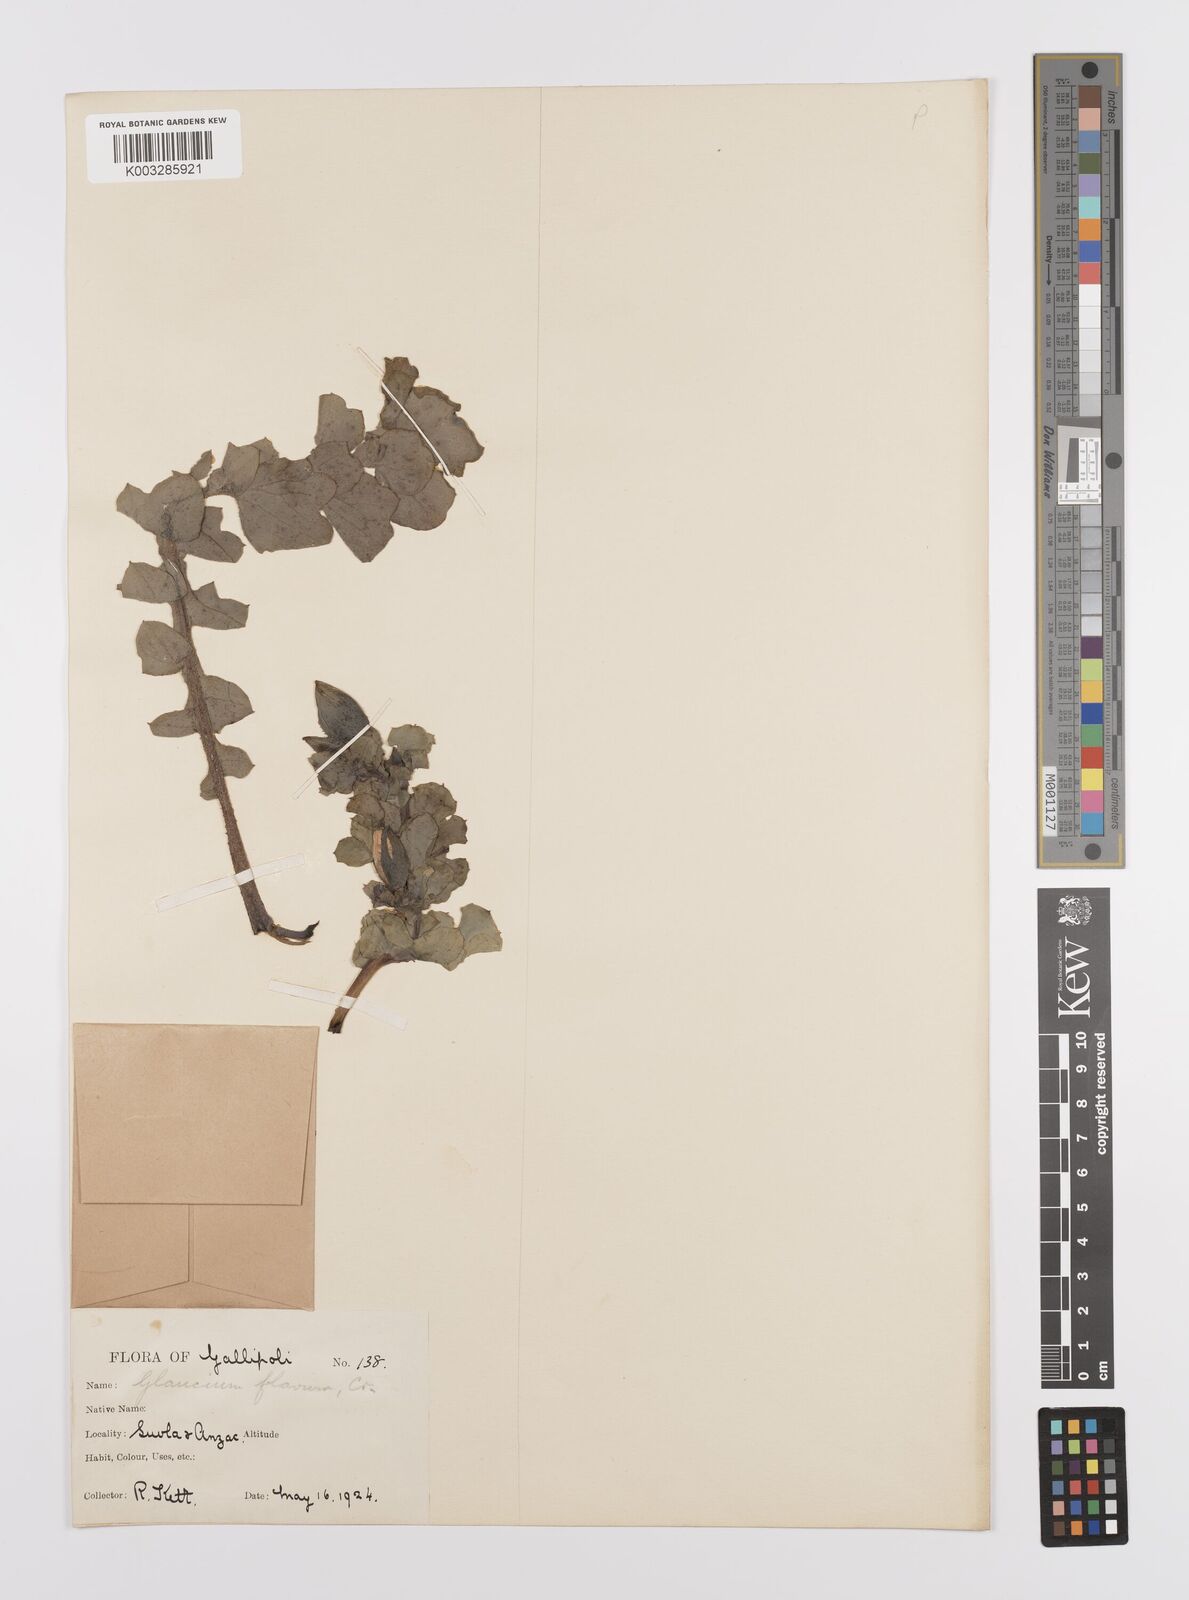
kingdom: Plantae
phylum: Tracheophyta
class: Magnoliopsida
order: Ranunculales
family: Papaveraceae
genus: Glaucium
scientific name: Glaucium flavum
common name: Yellow horned-poppy
